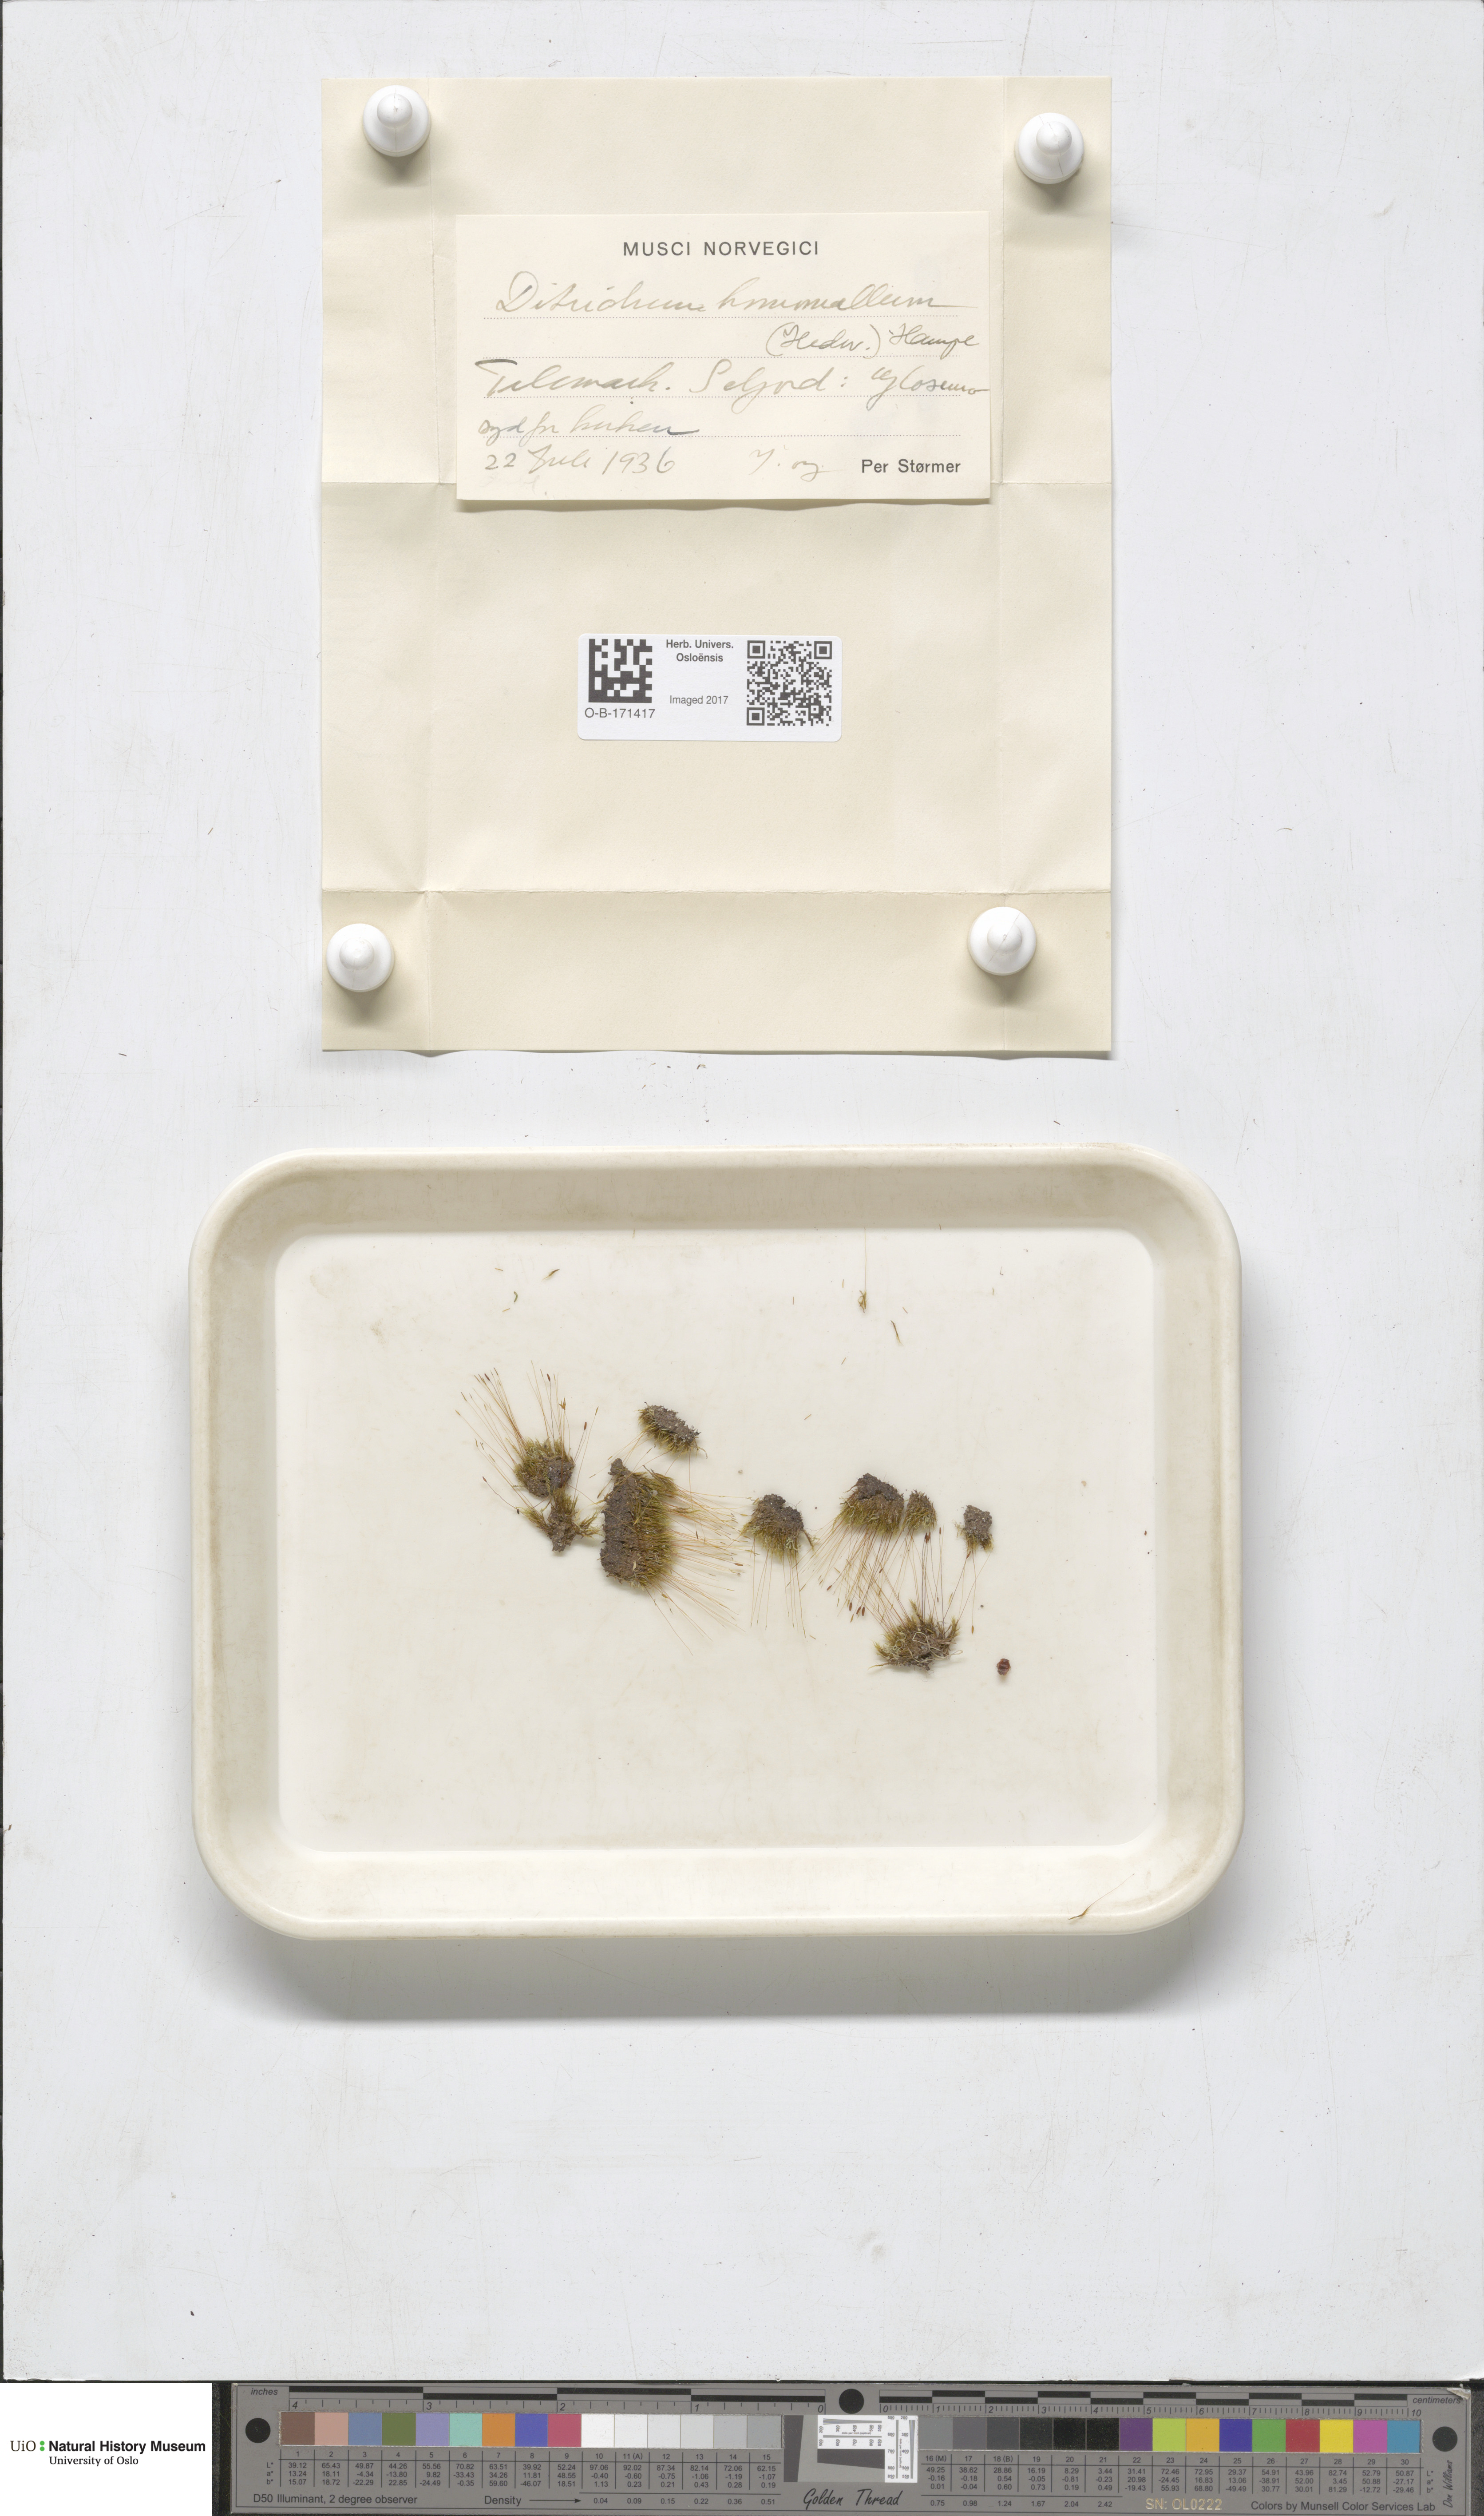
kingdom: Plantae
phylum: Bryophyta
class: Bryopsida
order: Dicranales
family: Ditrichaceae
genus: Ditrichum
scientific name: Ditrichum heteromallum
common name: Curve-leaved ditrichum
